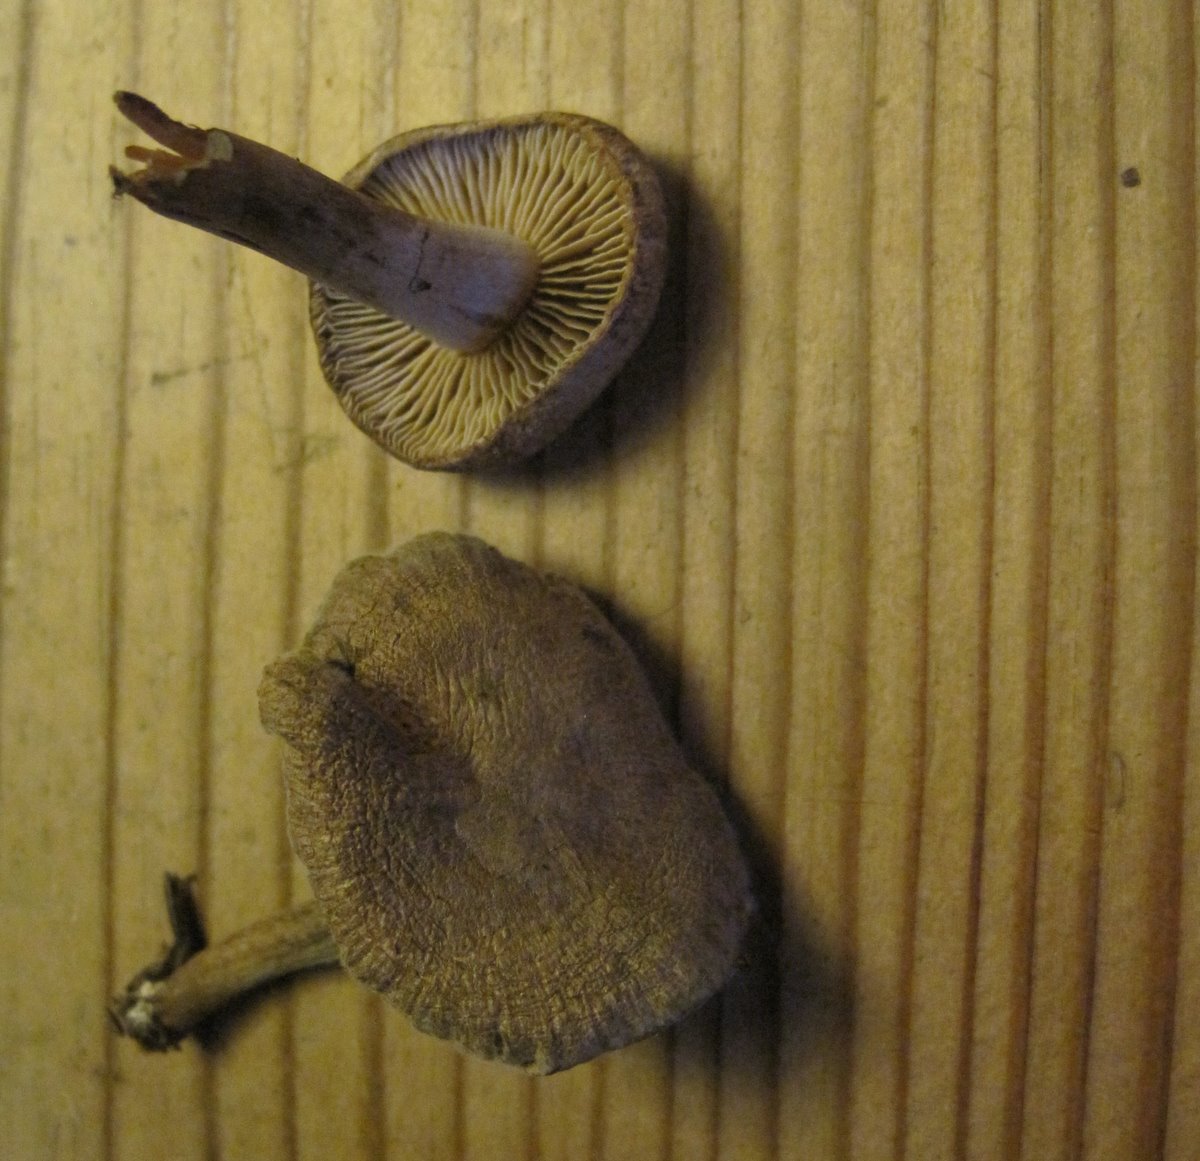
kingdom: Fungi
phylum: Basidiomycota
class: Agaricomycetes
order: Agaricales
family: Inocybaceae
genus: Inocybe
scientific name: Inocybe lacera
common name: laset trævlhat
